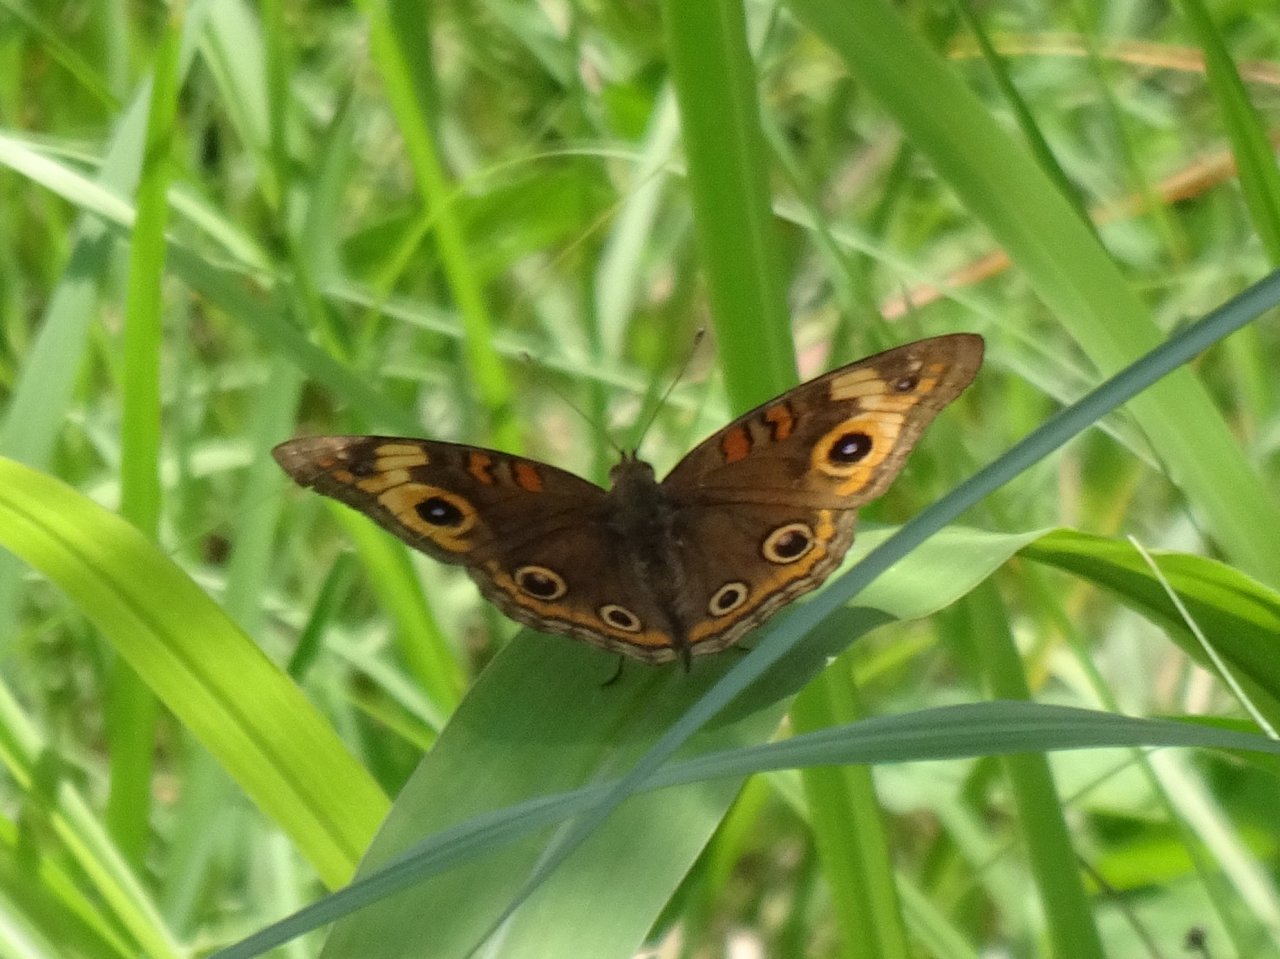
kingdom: Animalia
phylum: Arthropoda
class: Insecta
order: Lepidoptera
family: Nymphalidae
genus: Junonia
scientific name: Junonia evarete
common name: Mangrove Buckeye
